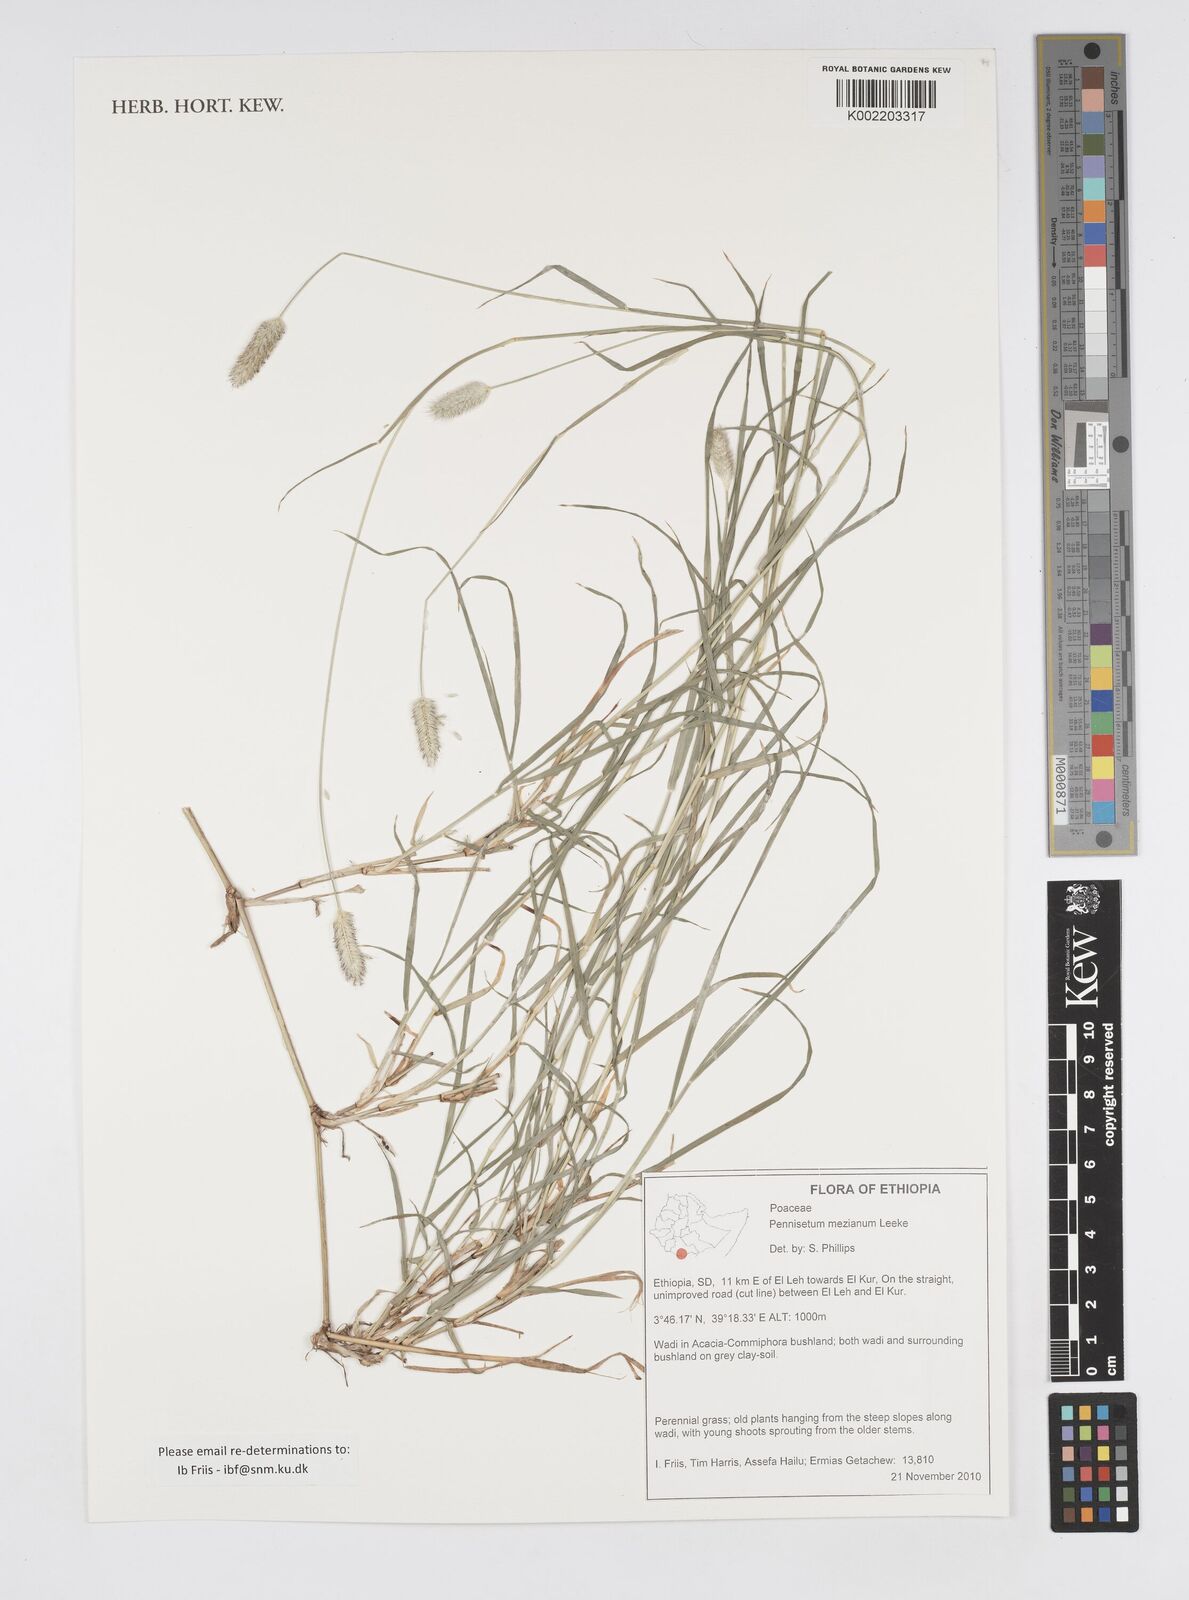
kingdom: Plantae
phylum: Tracheophyta
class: Liliopsida
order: Poales
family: Poaceae
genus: Cenchrus
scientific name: Cenchrus mezianus
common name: Bamboo grass
